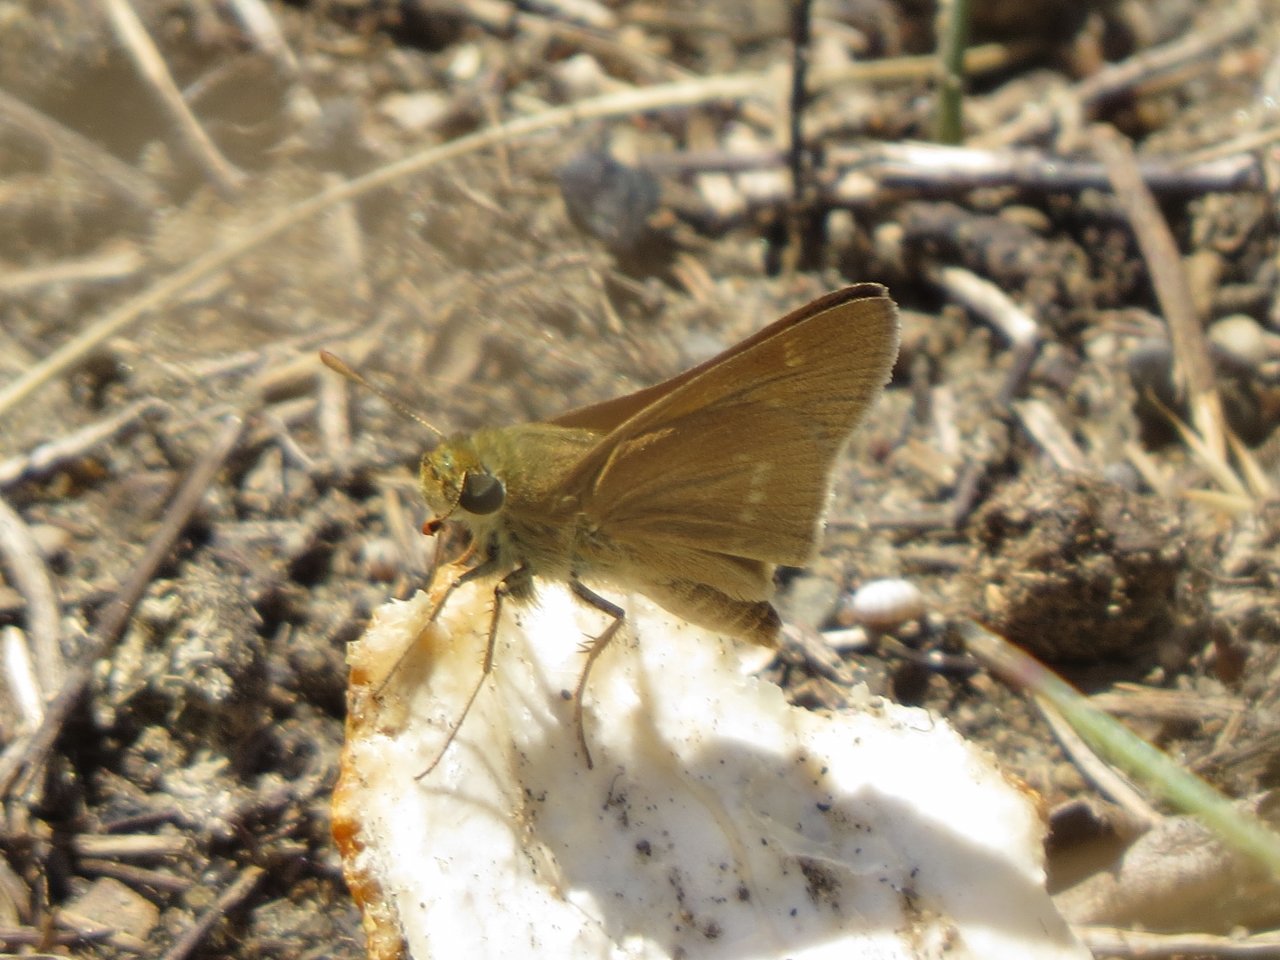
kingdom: Animalia
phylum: Arthropoda
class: Insecta
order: Lepidoptera
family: Hesperiidae
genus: Polites
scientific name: Polites
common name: Crossline Skipper
